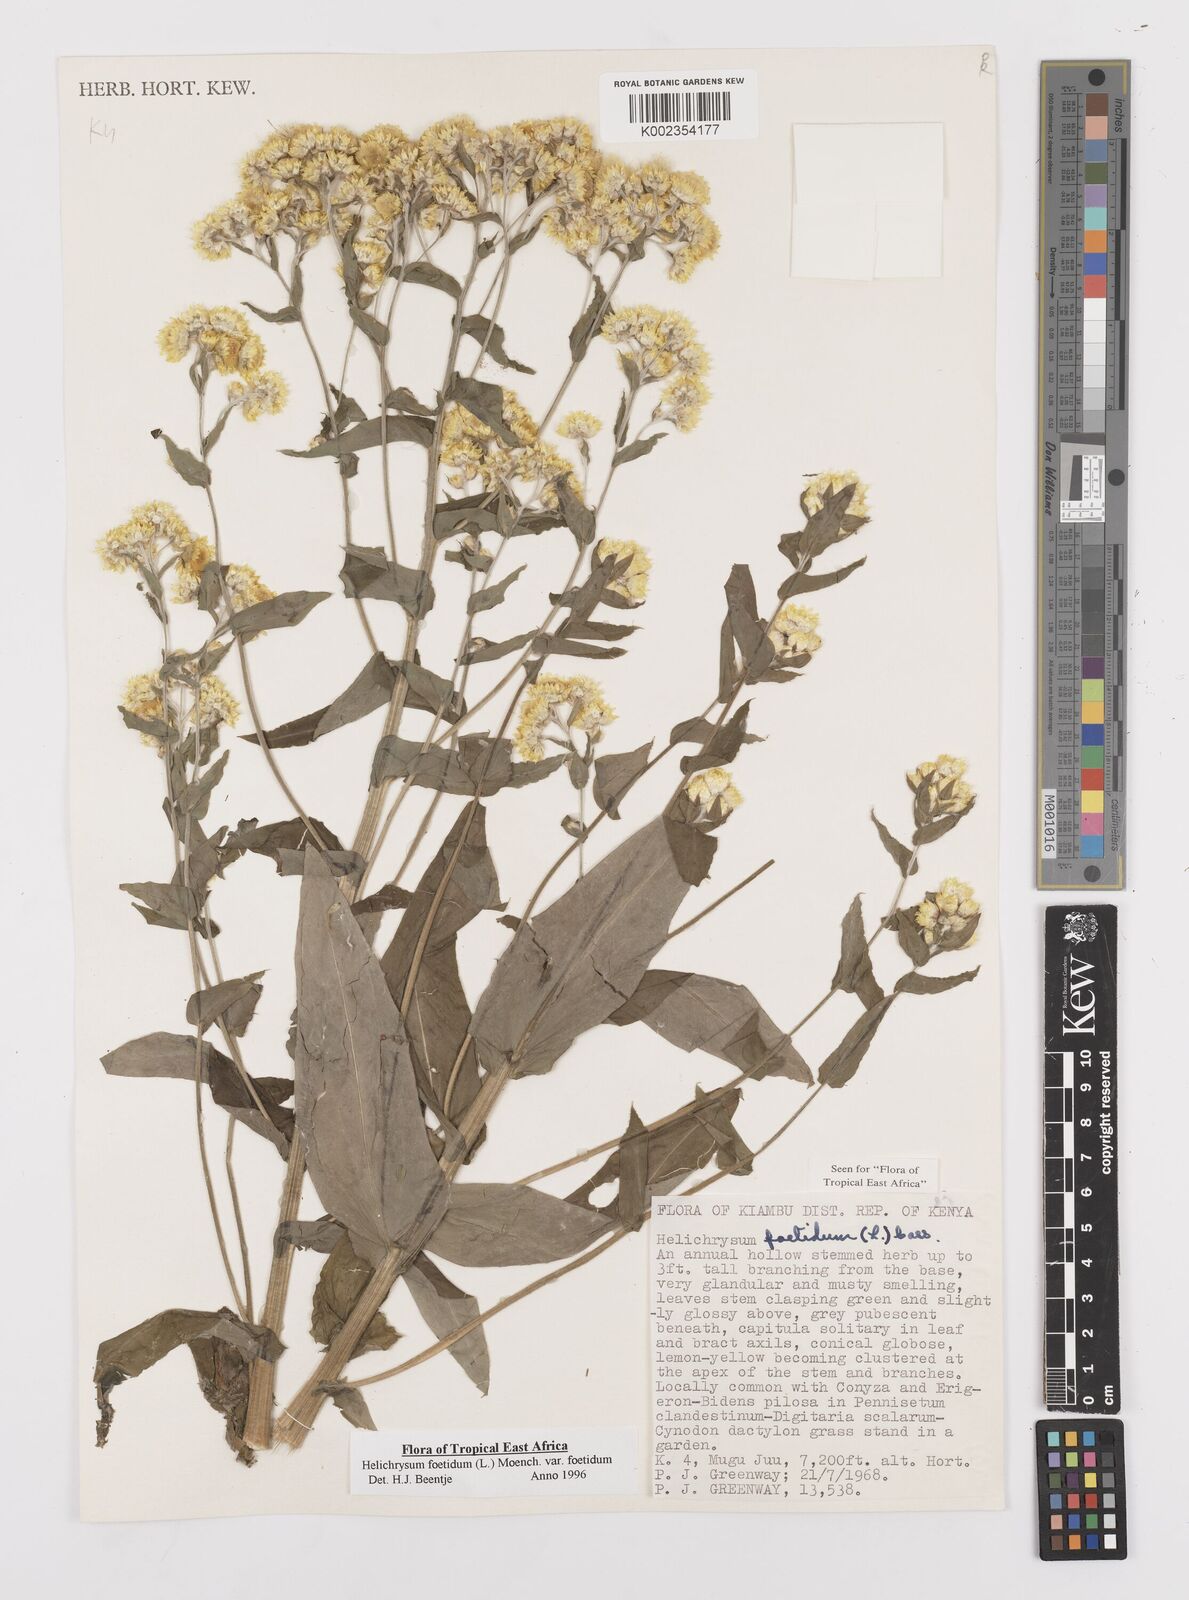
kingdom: Plantae
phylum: Tracheophyta
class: Magnoliopsida
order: Asterales
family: Asteraceae
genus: Helichrysum
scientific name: Helichrysum foetidum
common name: Stinking everlasting
